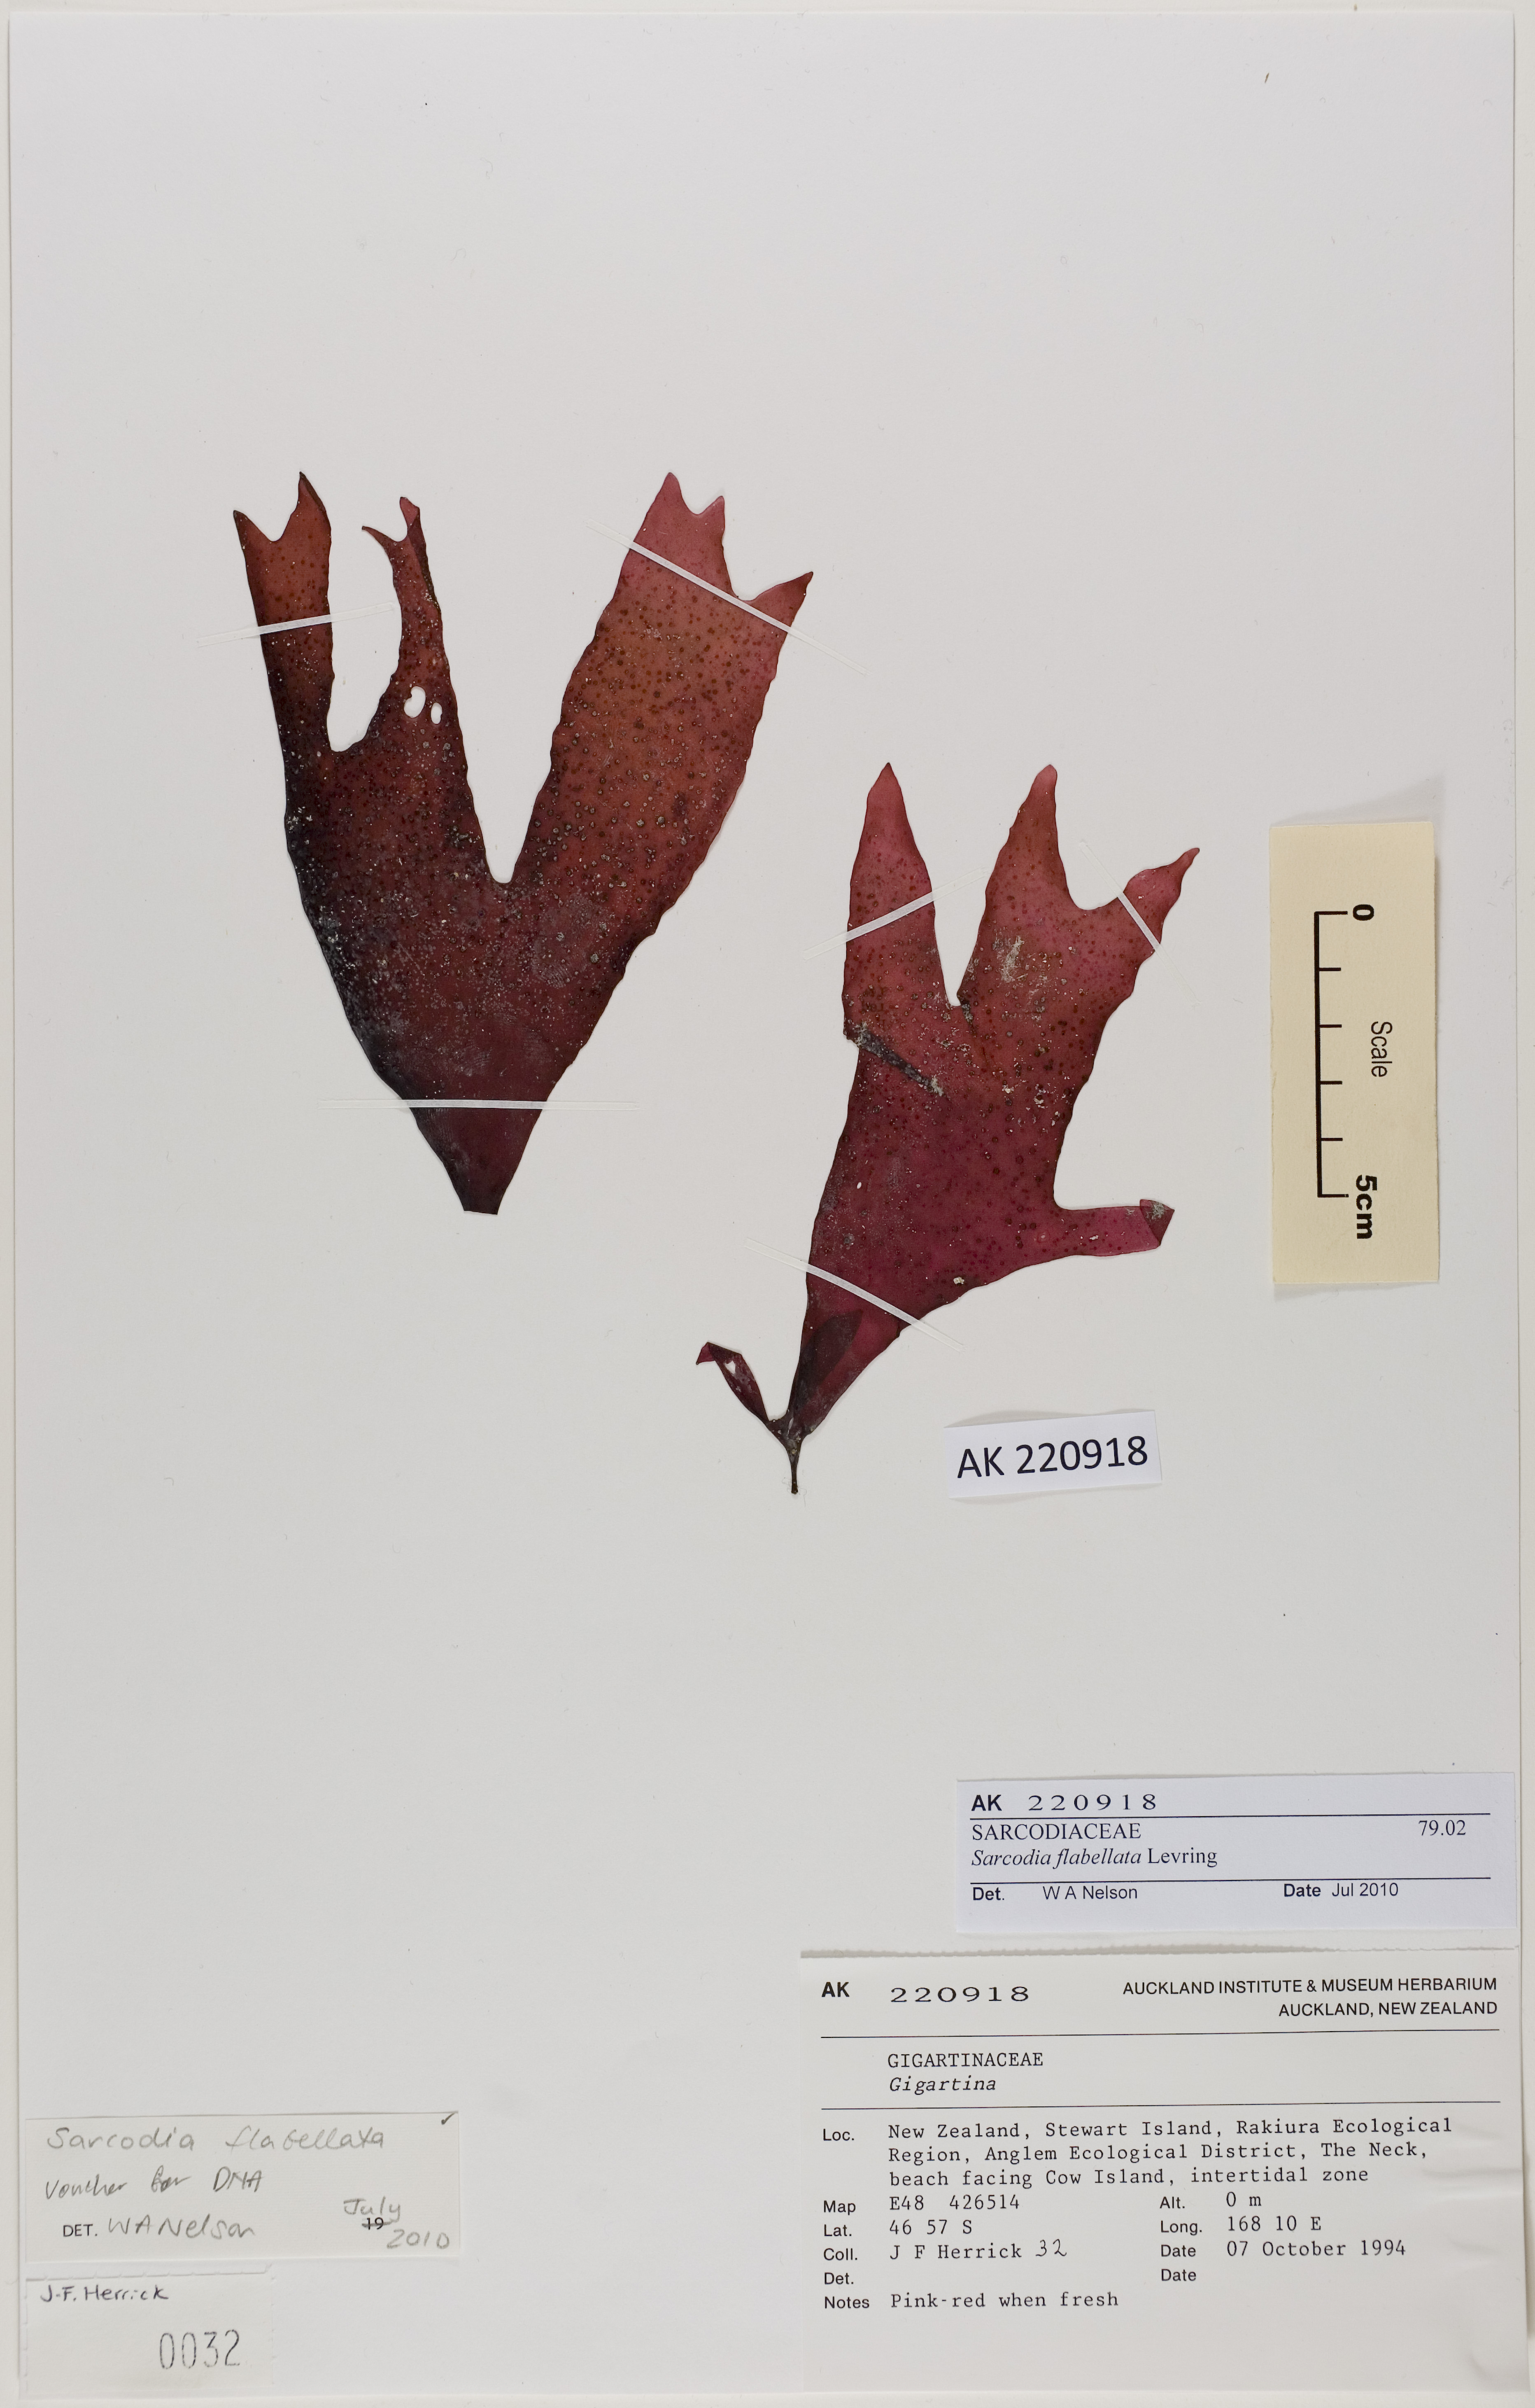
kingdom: Plantae
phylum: Rhodophyta
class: Florideophyceae
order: Gigartinales
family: Sarcodiaceae
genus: Sarcodia
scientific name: Sarcodia grandifolia
